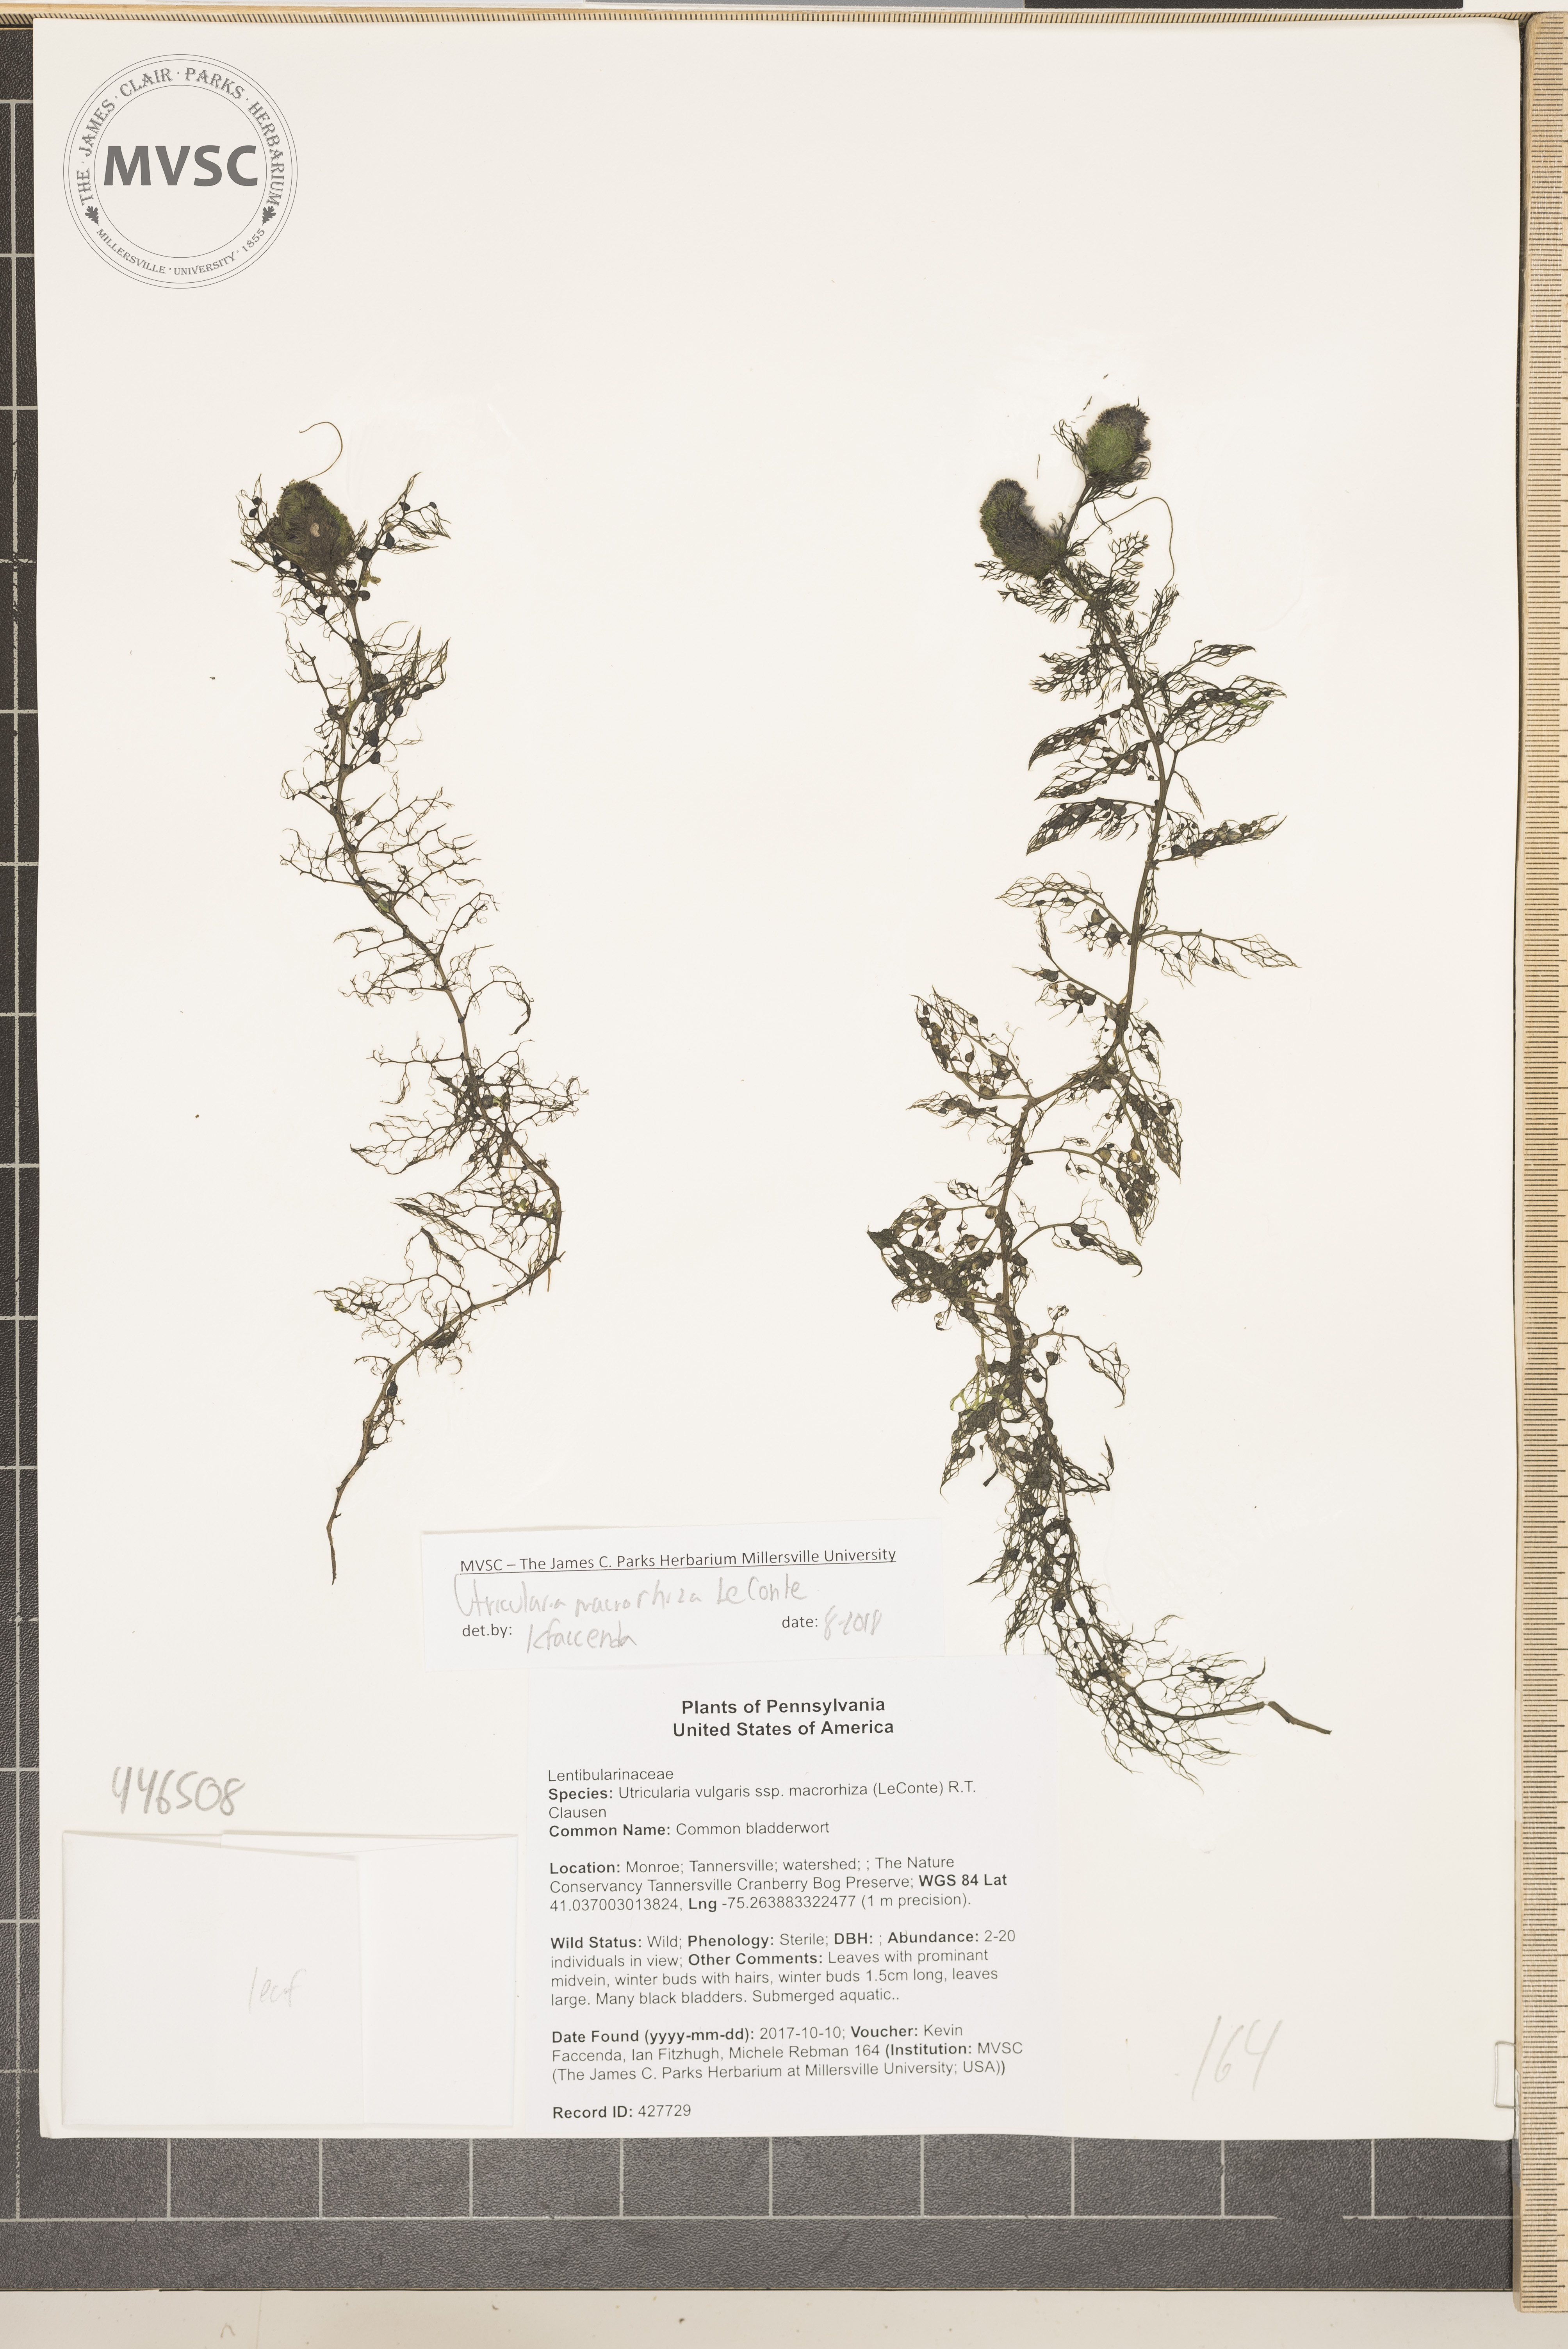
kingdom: Plantae
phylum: Tracheophyta
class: Magnoliopsida
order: Lamiales
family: Lentibulariaceae
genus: Utricularia
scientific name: Utricularia macrorhiza
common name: Common bladderwort
